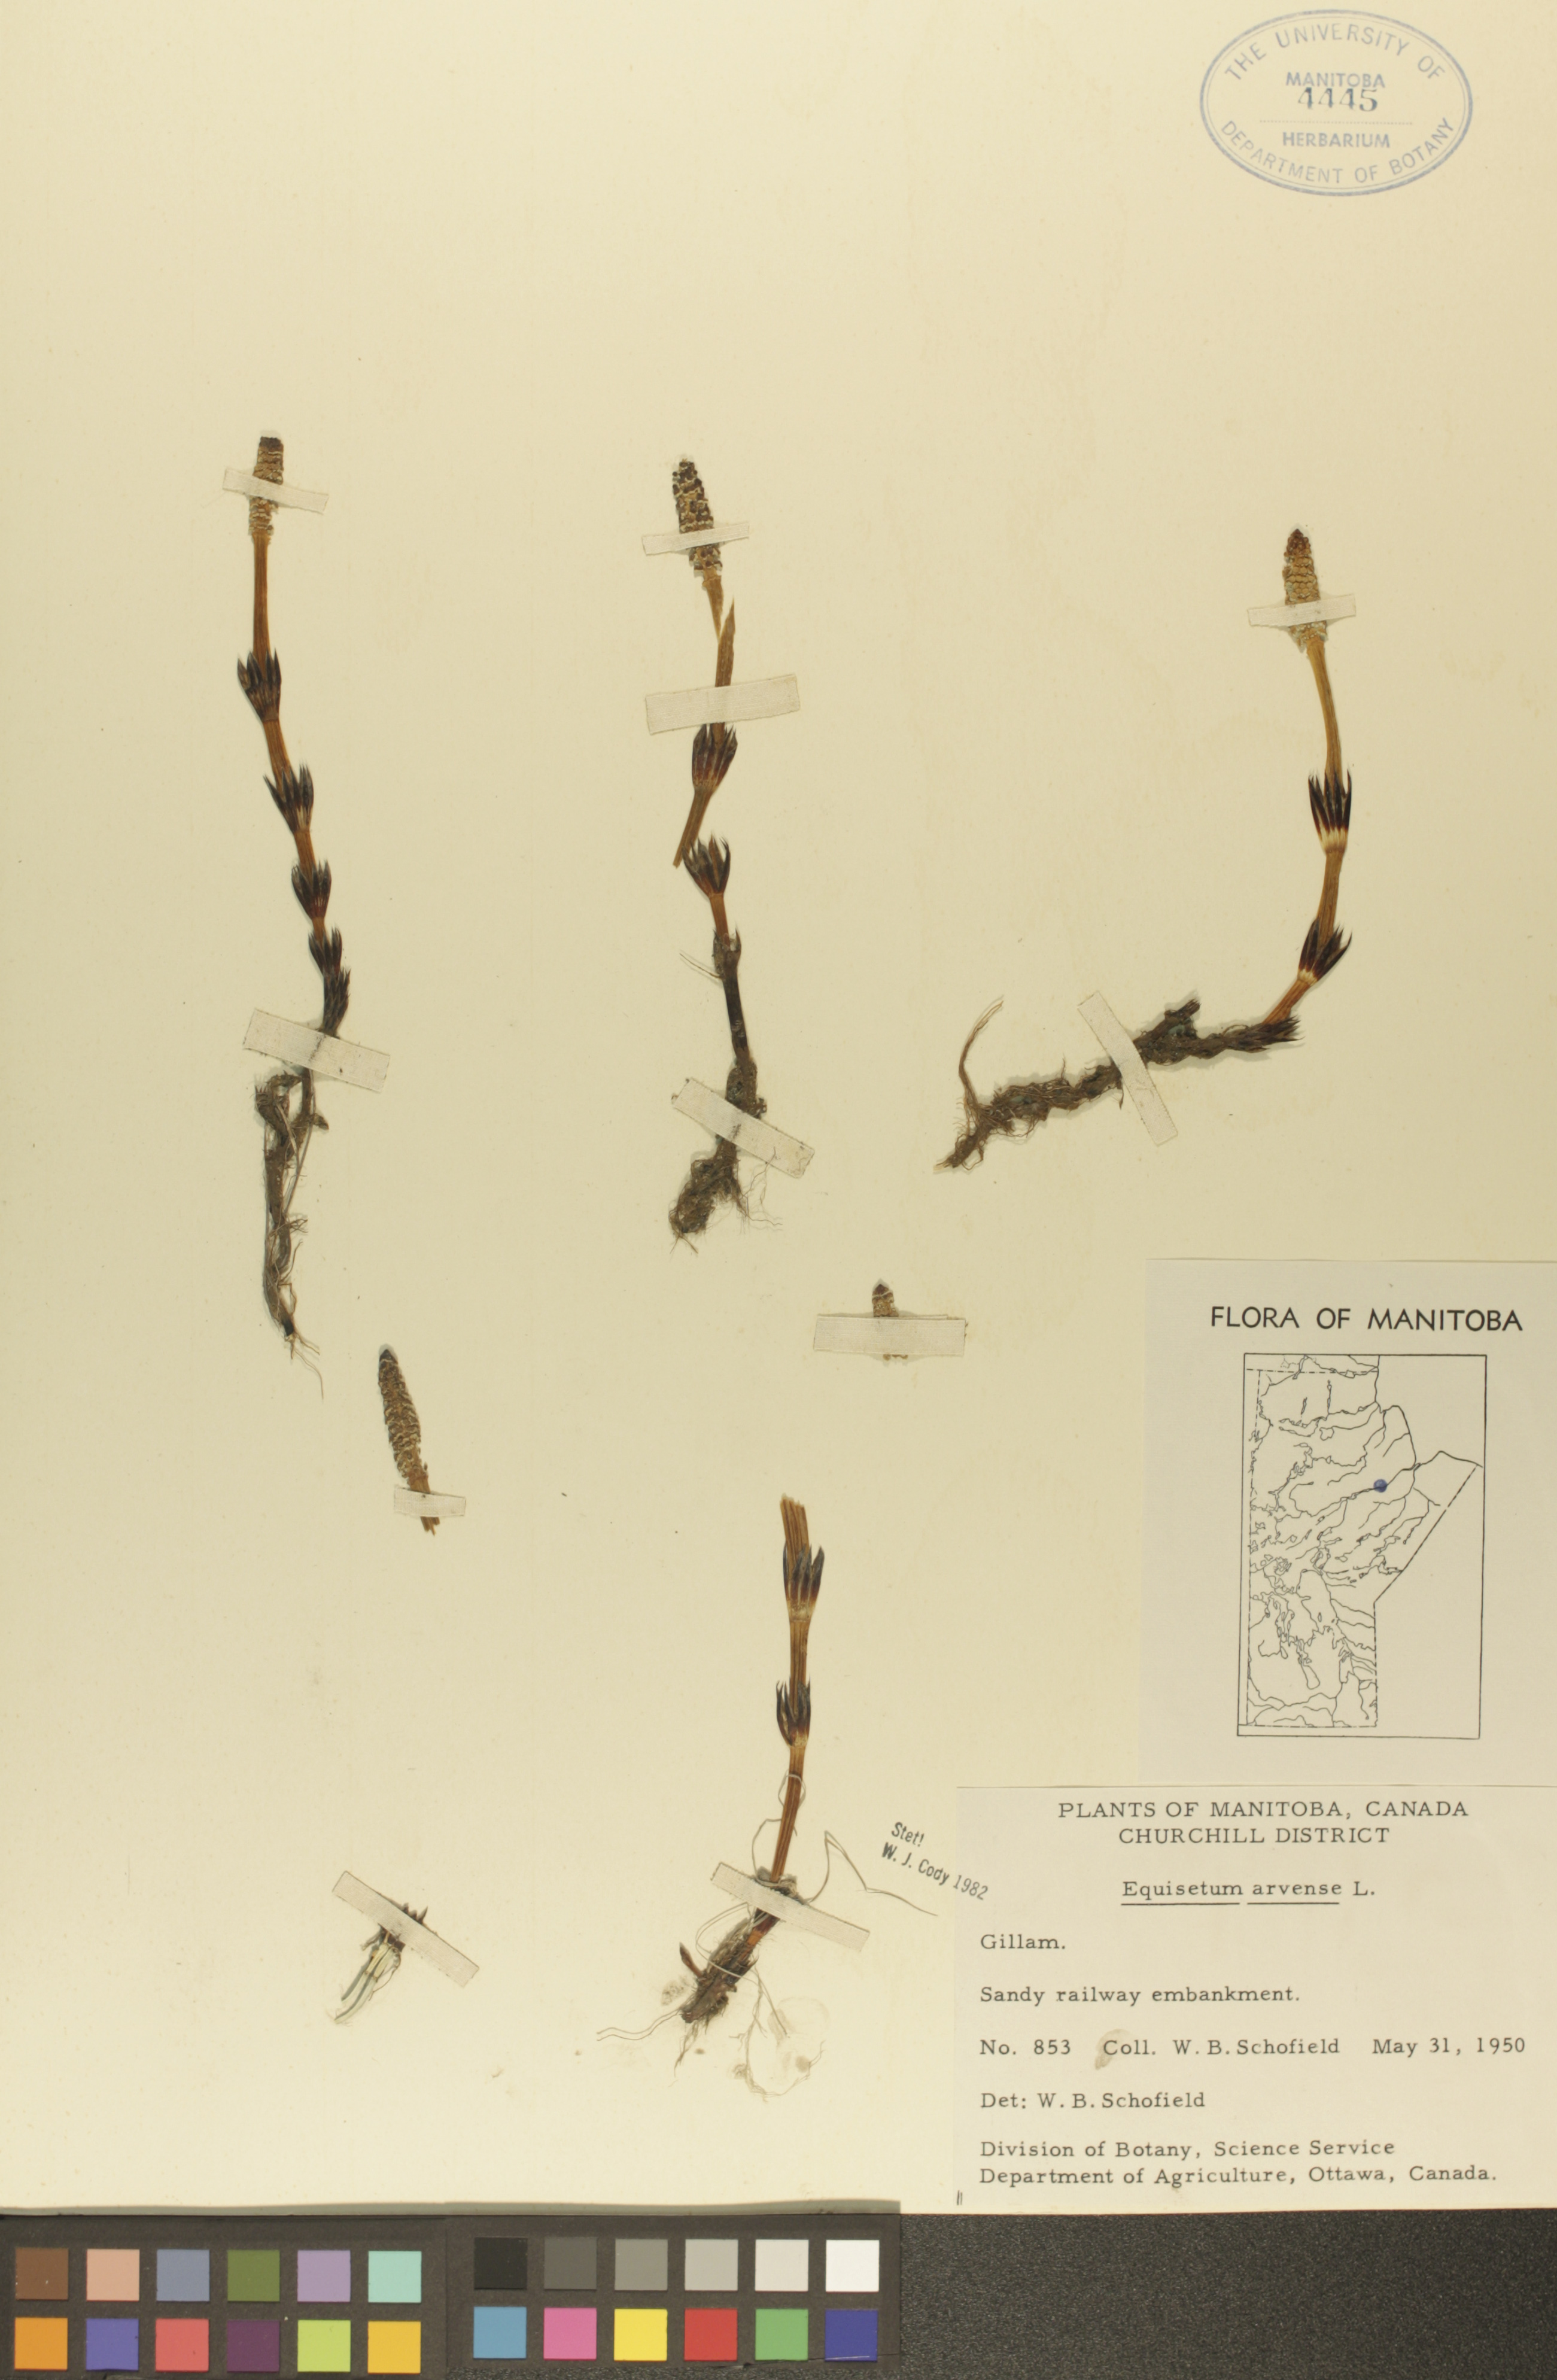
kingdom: Plantae
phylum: Tracheophyta
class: Polypodiopsida
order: Equisetales
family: Equisetaceae
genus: Equisetum
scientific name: Equisetum arvense
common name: Field horsetail
